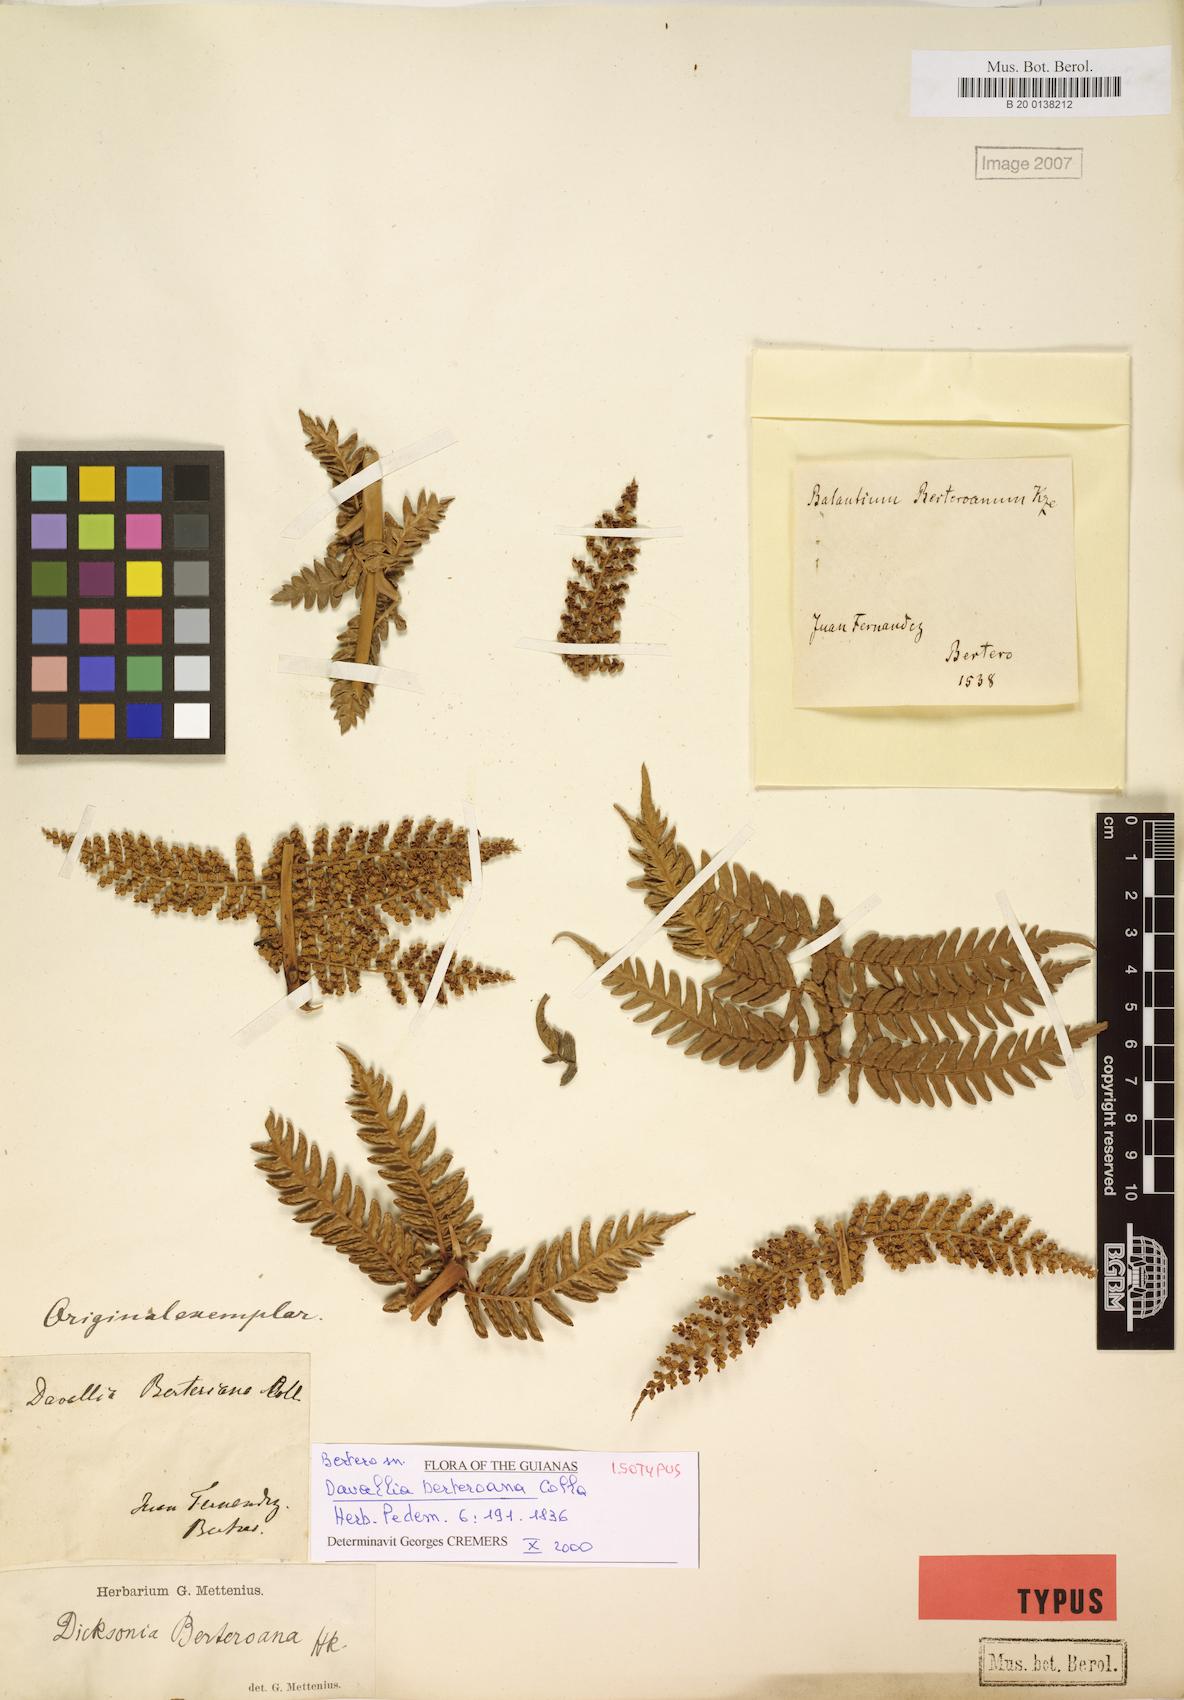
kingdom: Plantae
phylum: Tracheophyta
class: Polypodiopsida
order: Cyatheales
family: Dicksoniaceae
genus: Dicksonia
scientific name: Dicksonia berteroana
